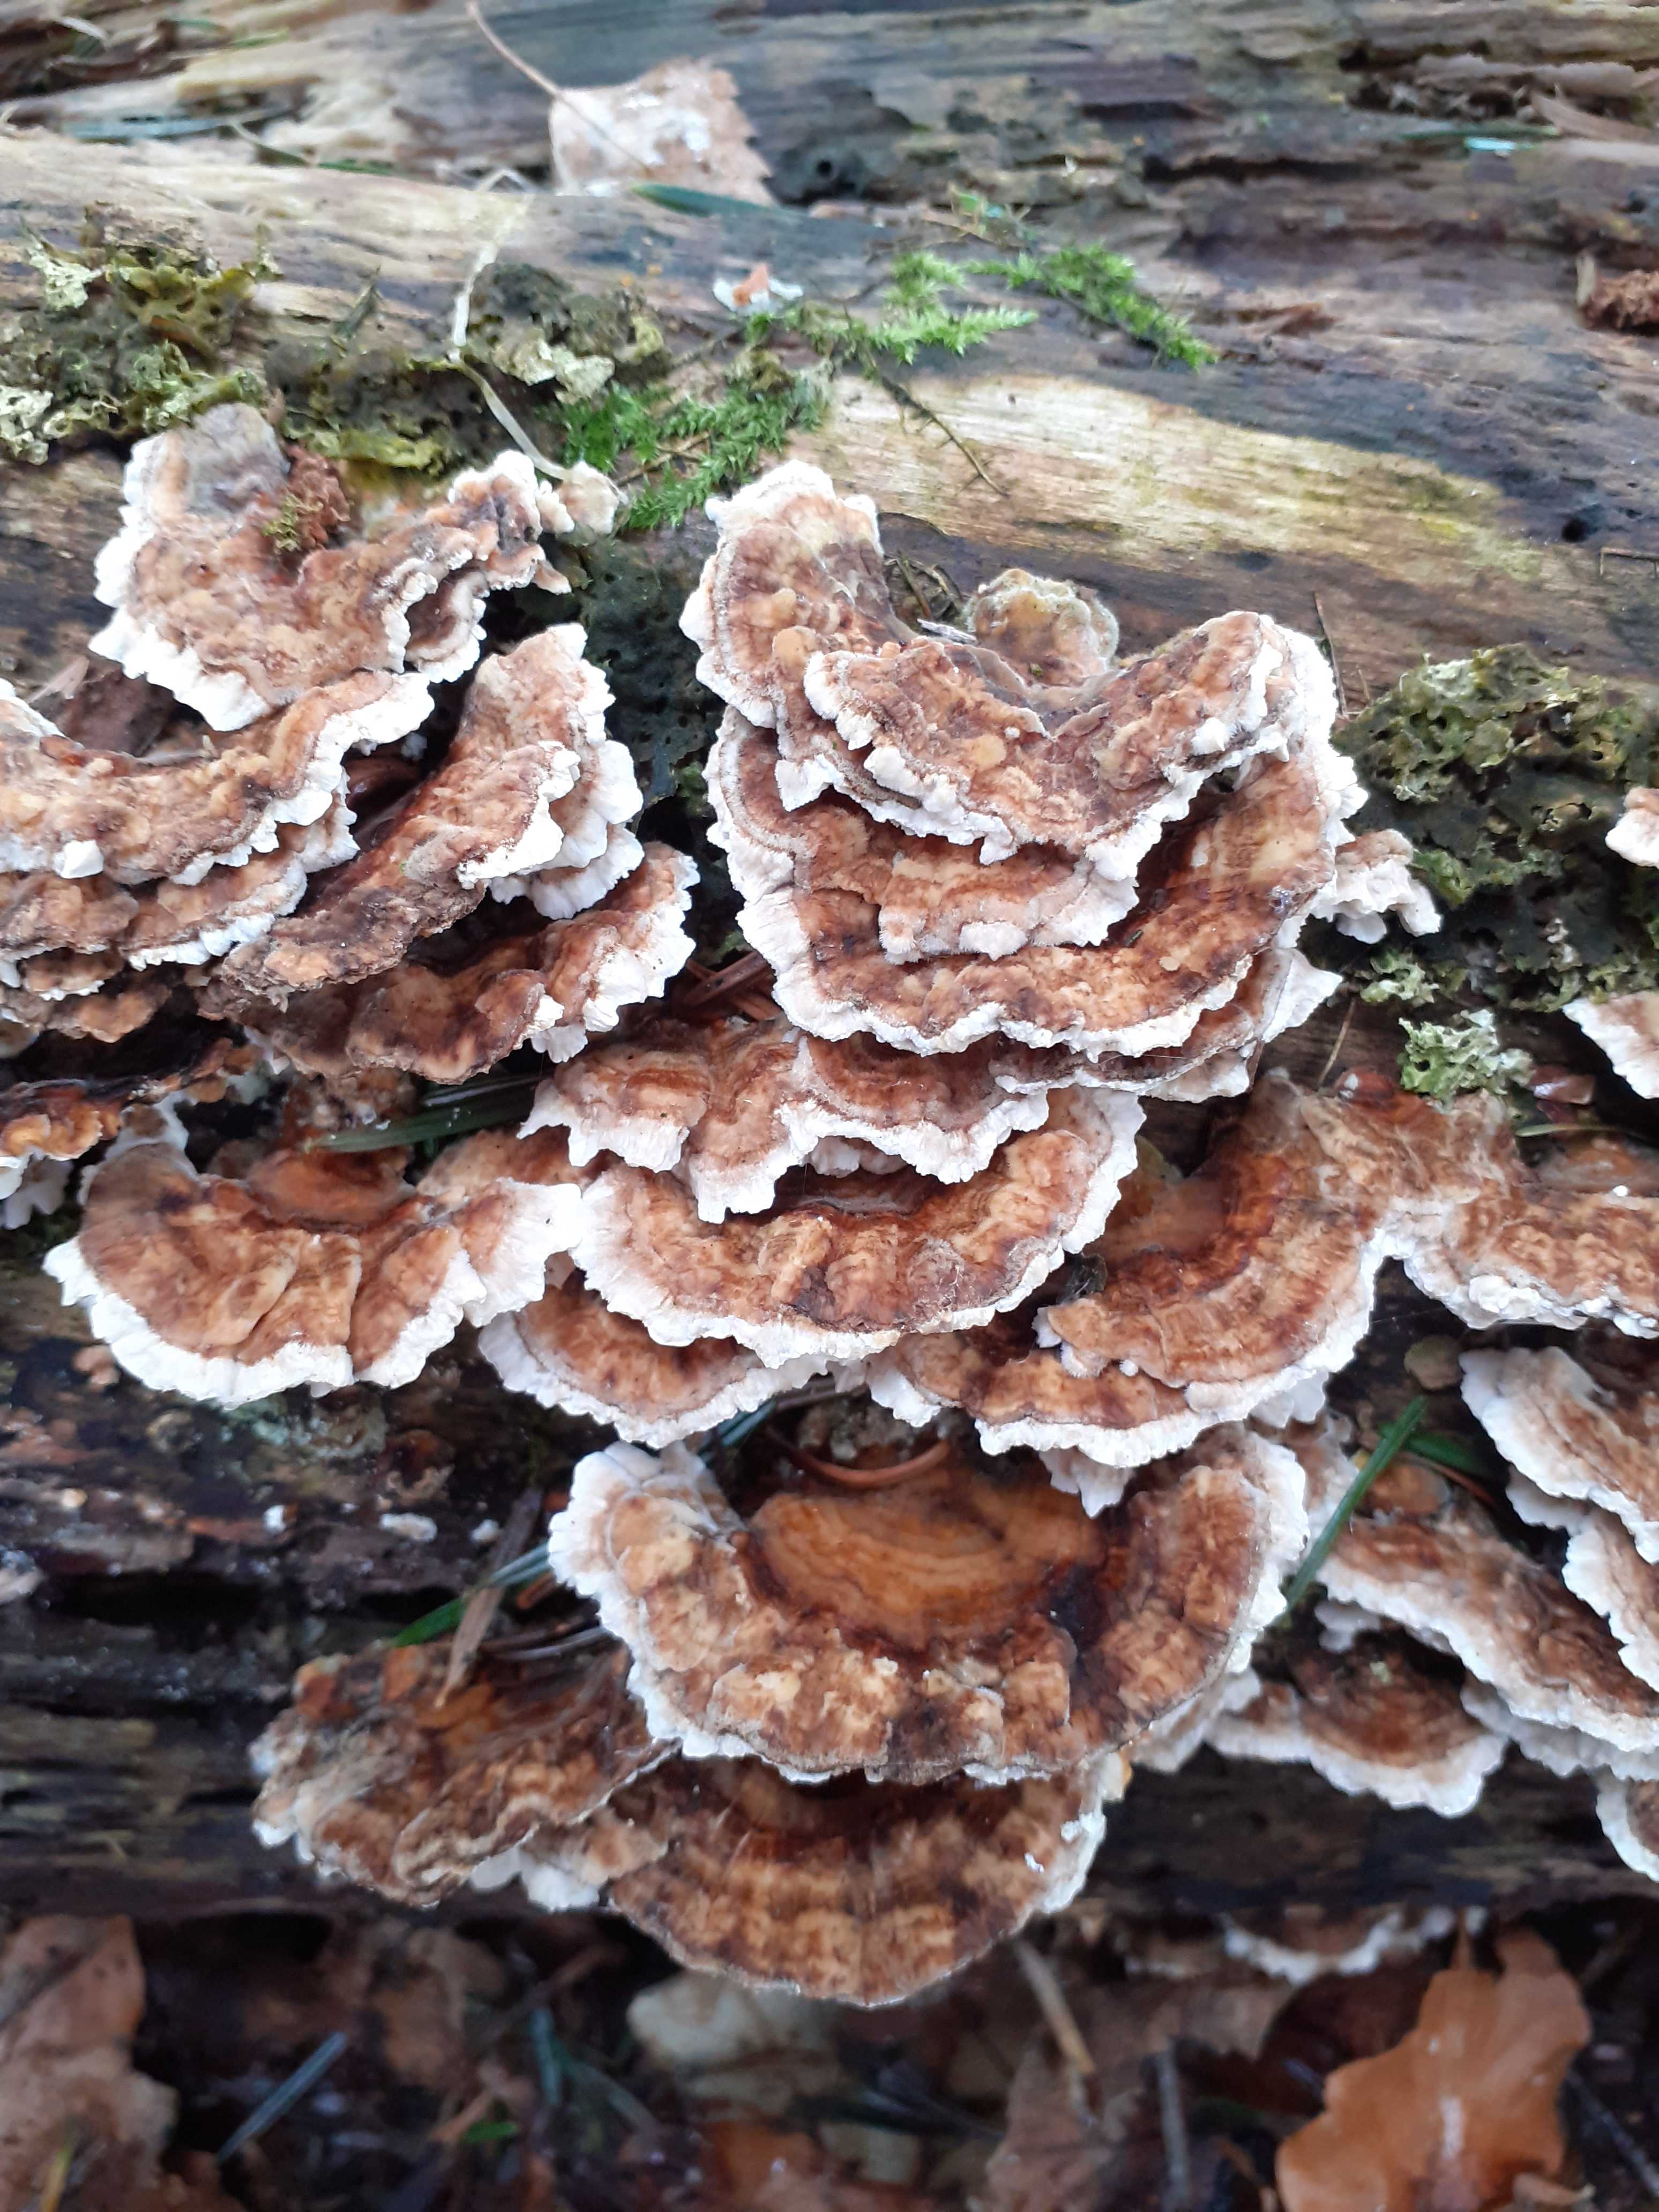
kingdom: Fungi
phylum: Basidiomycota
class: Agaricomycetes
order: Polyporales
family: Polyporaceae
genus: Trametes
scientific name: Trametes ochracea
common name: bæltet læderporesvamp
